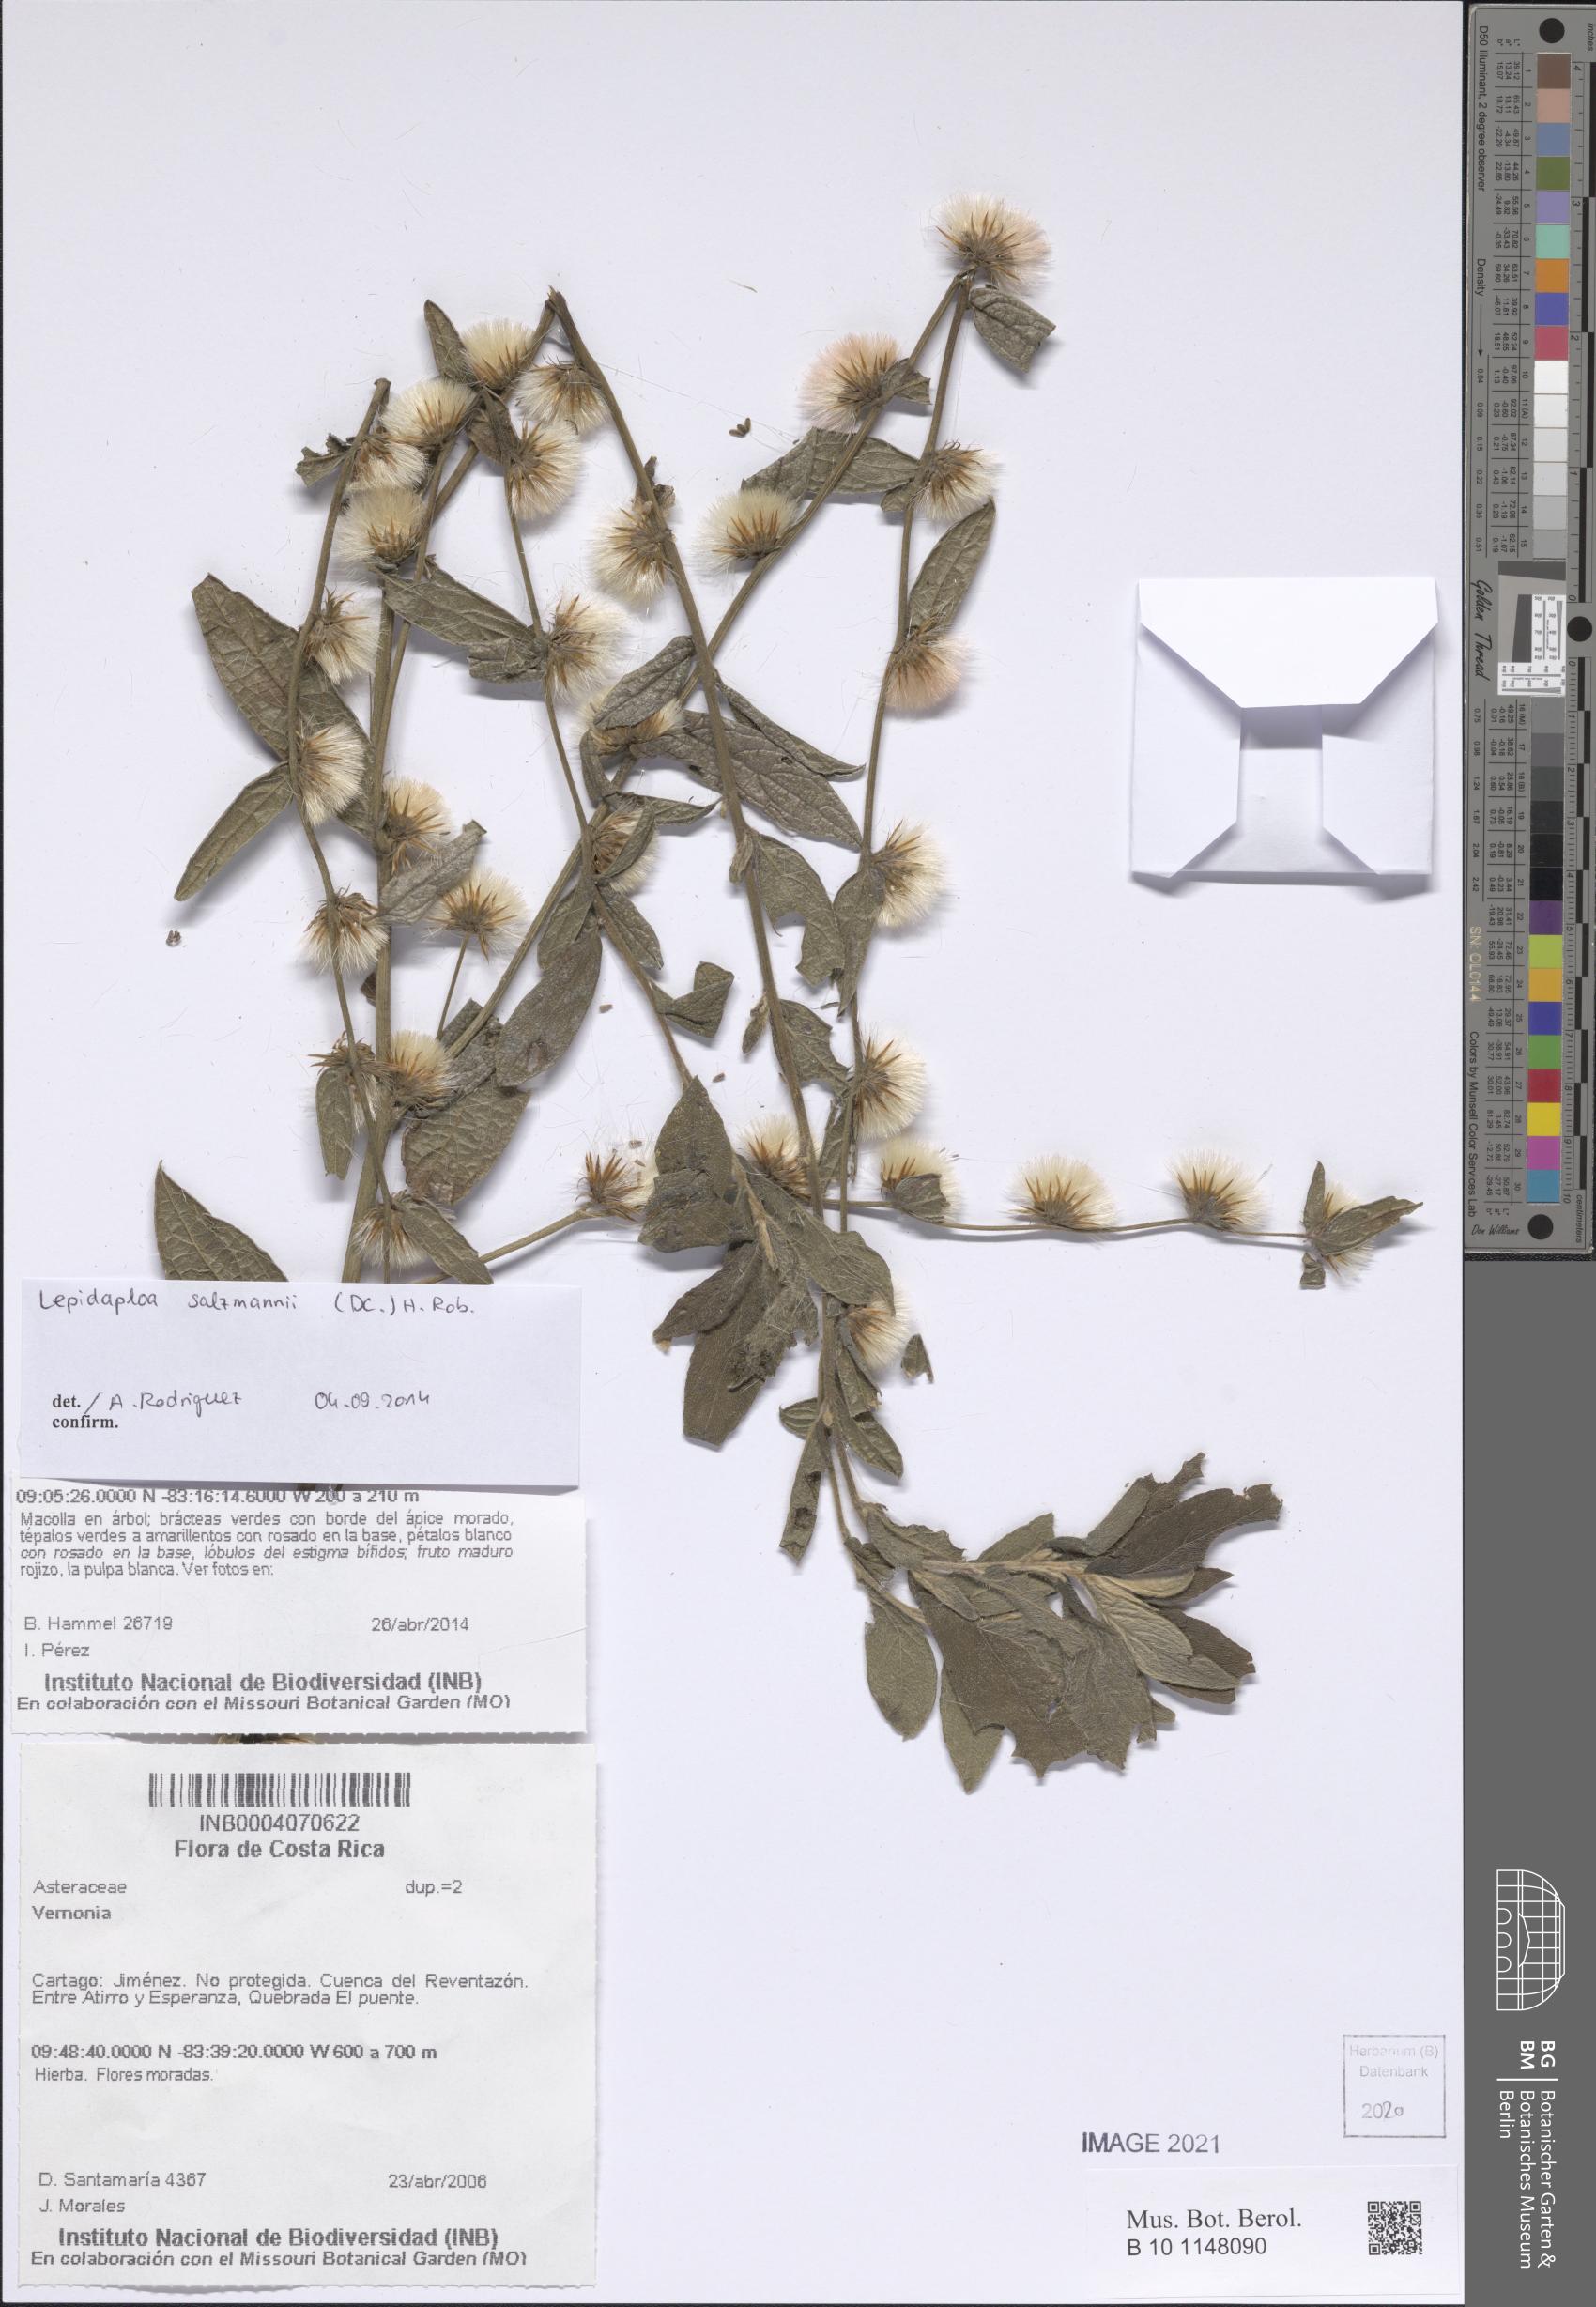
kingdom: Plantae
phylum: Tracheophyta
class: Magnoliopsida
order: Asterales
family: Asteraceae
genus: Lepidaploa
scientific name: Lepidaploa salzmannii
